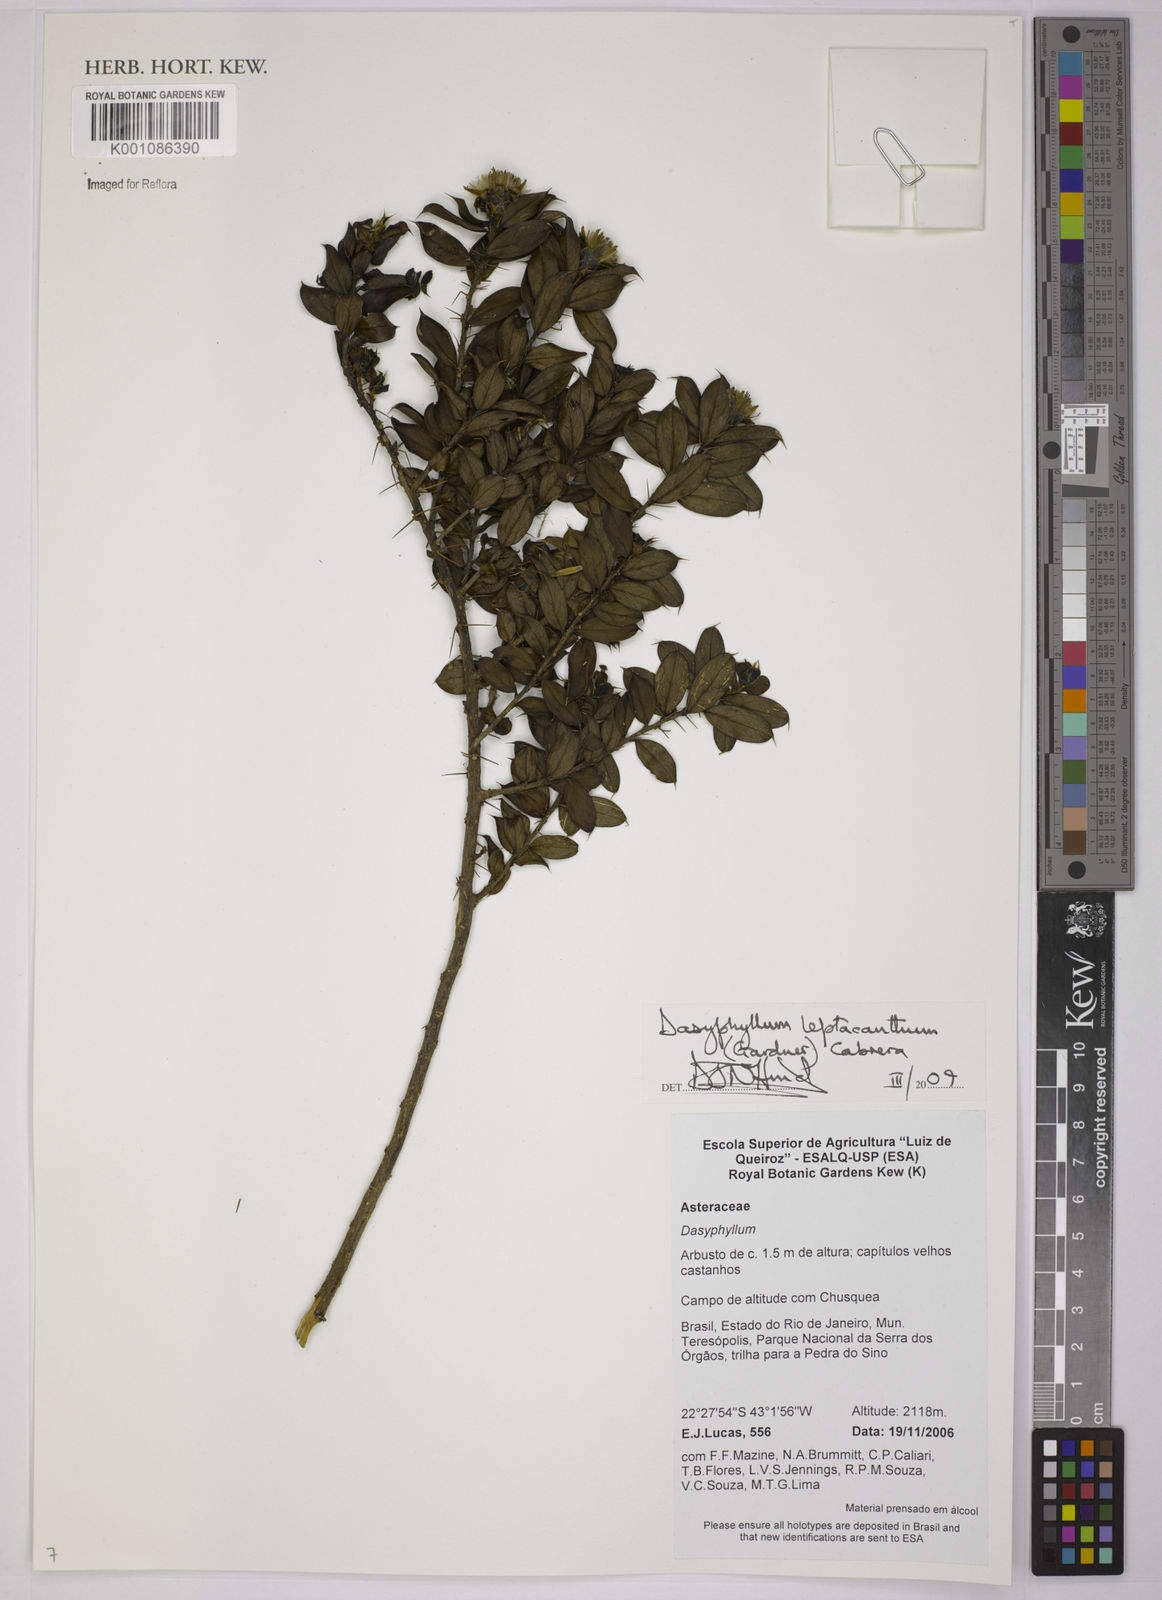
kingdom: Plantae
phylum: Tracheophyta
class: Magnoliopsida
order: Asterales
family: Asteraceae
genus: Dasyphyllum
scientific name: Dasyphyllum leptacanthum
